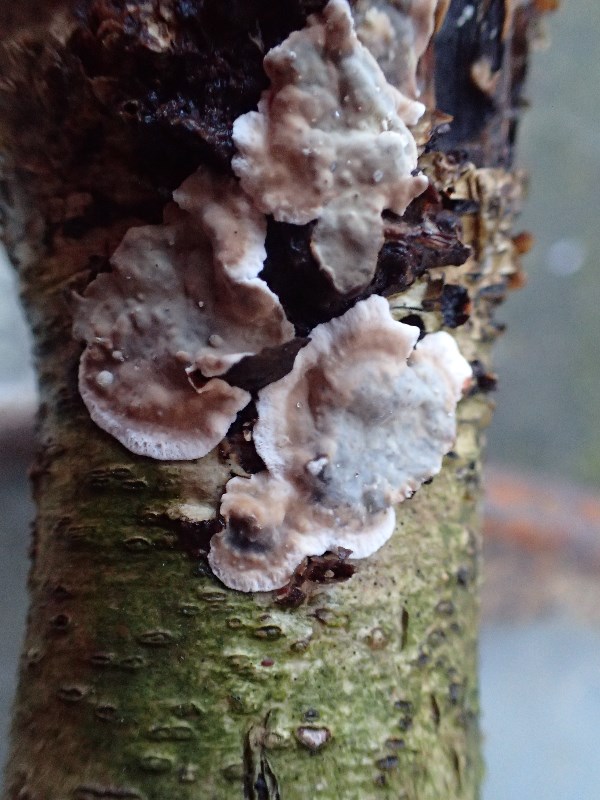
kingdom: Fungi
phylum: Basidiomycota
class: Agaricomycetes
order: Russulales
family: Stereaceae
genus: Stereum
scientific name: Stereum rugosum
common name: rynket lædersvamp
